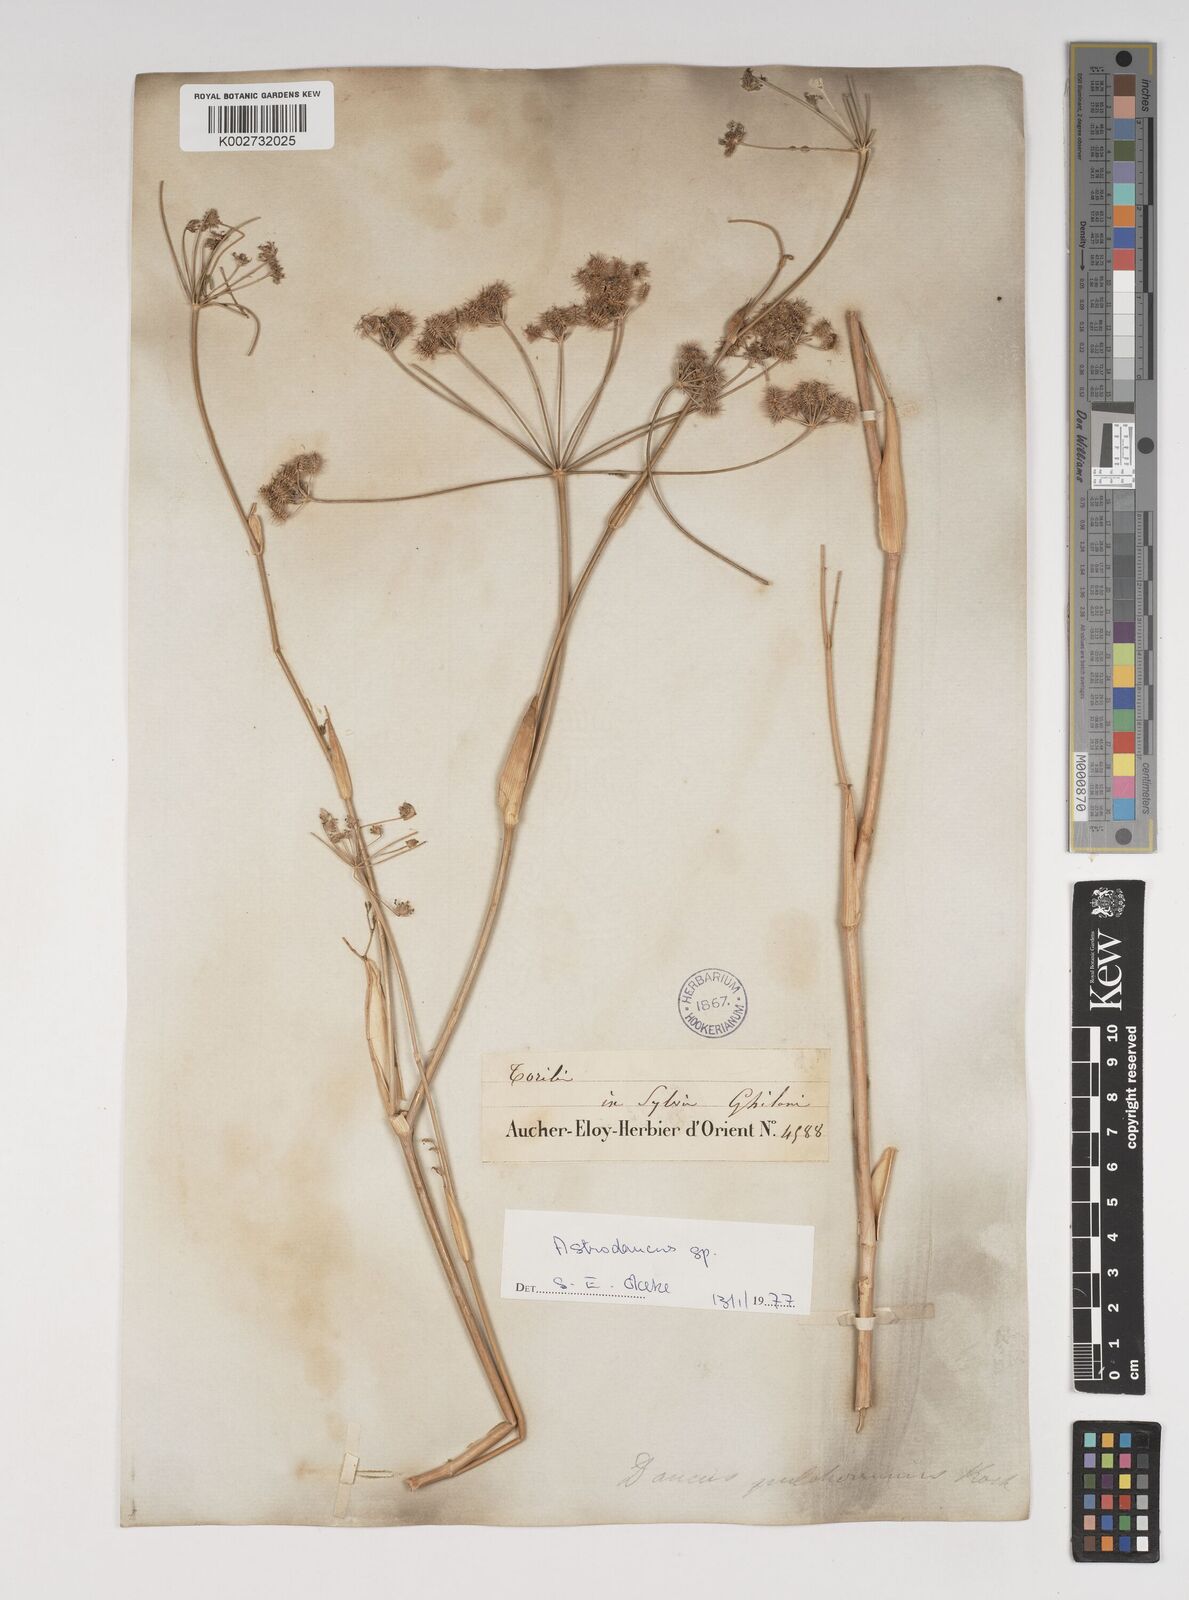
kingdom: Plantae
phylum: Tracheophyta
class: Magnoliopsida
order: Apiales
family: Apiaceae
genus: Astrodaucus
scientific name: Astrodaucus
